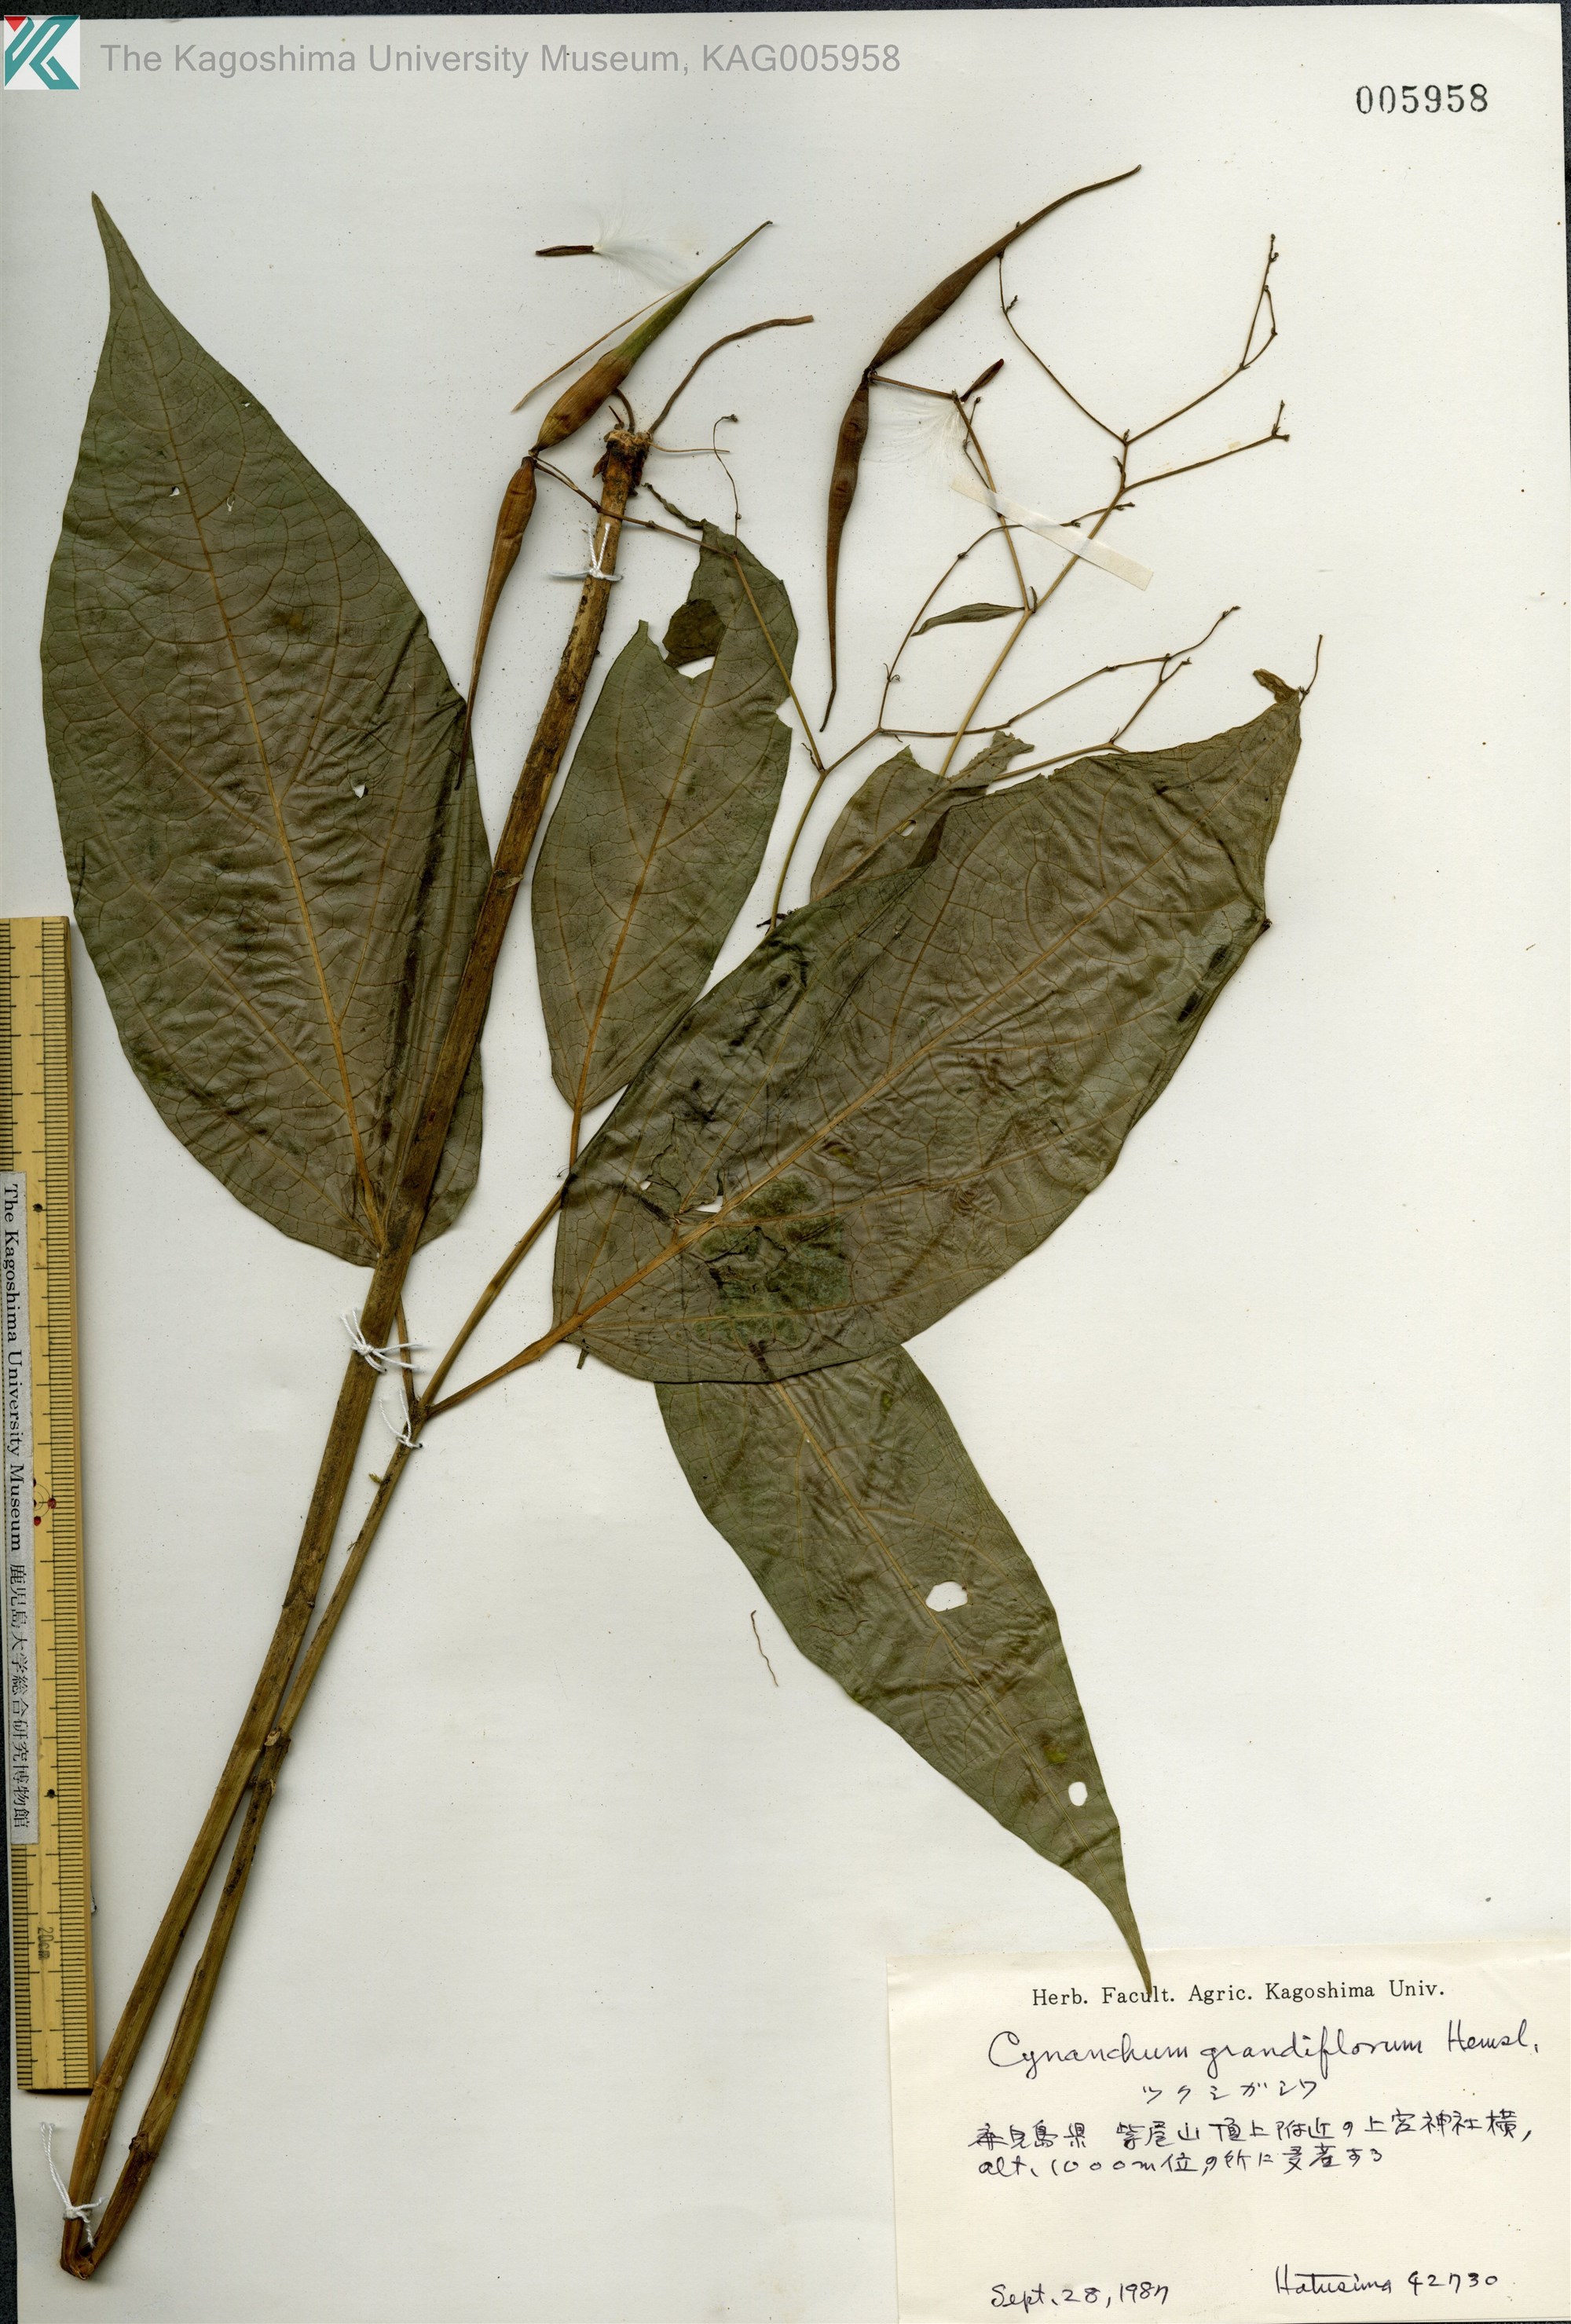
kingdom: Plantae
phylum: Tracheophyta
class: Magnoliopsida
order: Gentianales
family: Apocynaceae
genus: Vincetoxicum
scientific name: Vincetoxicum macrophyllum
